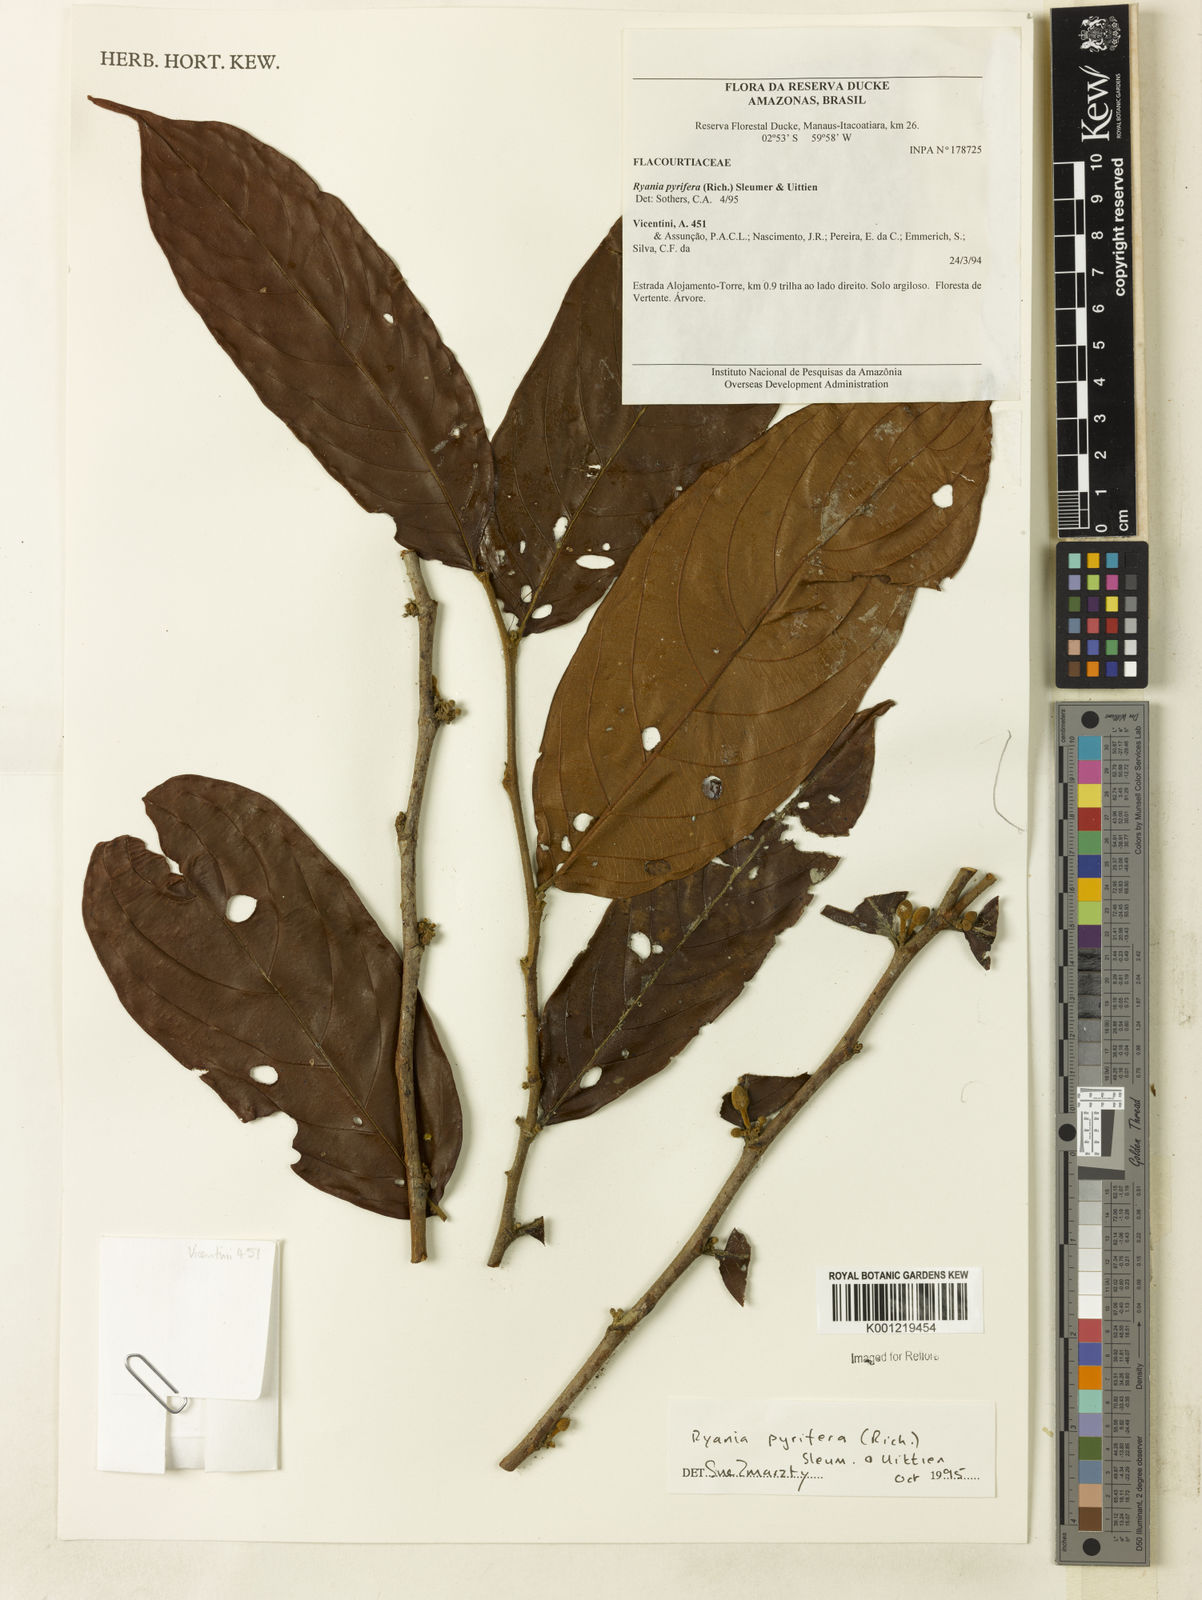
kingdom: Plantae
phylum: Tracheophyta
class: Magnoliopsida
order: Malpighiales
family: Salicaceae
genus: Ryania
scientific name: Ryania pyrifera
